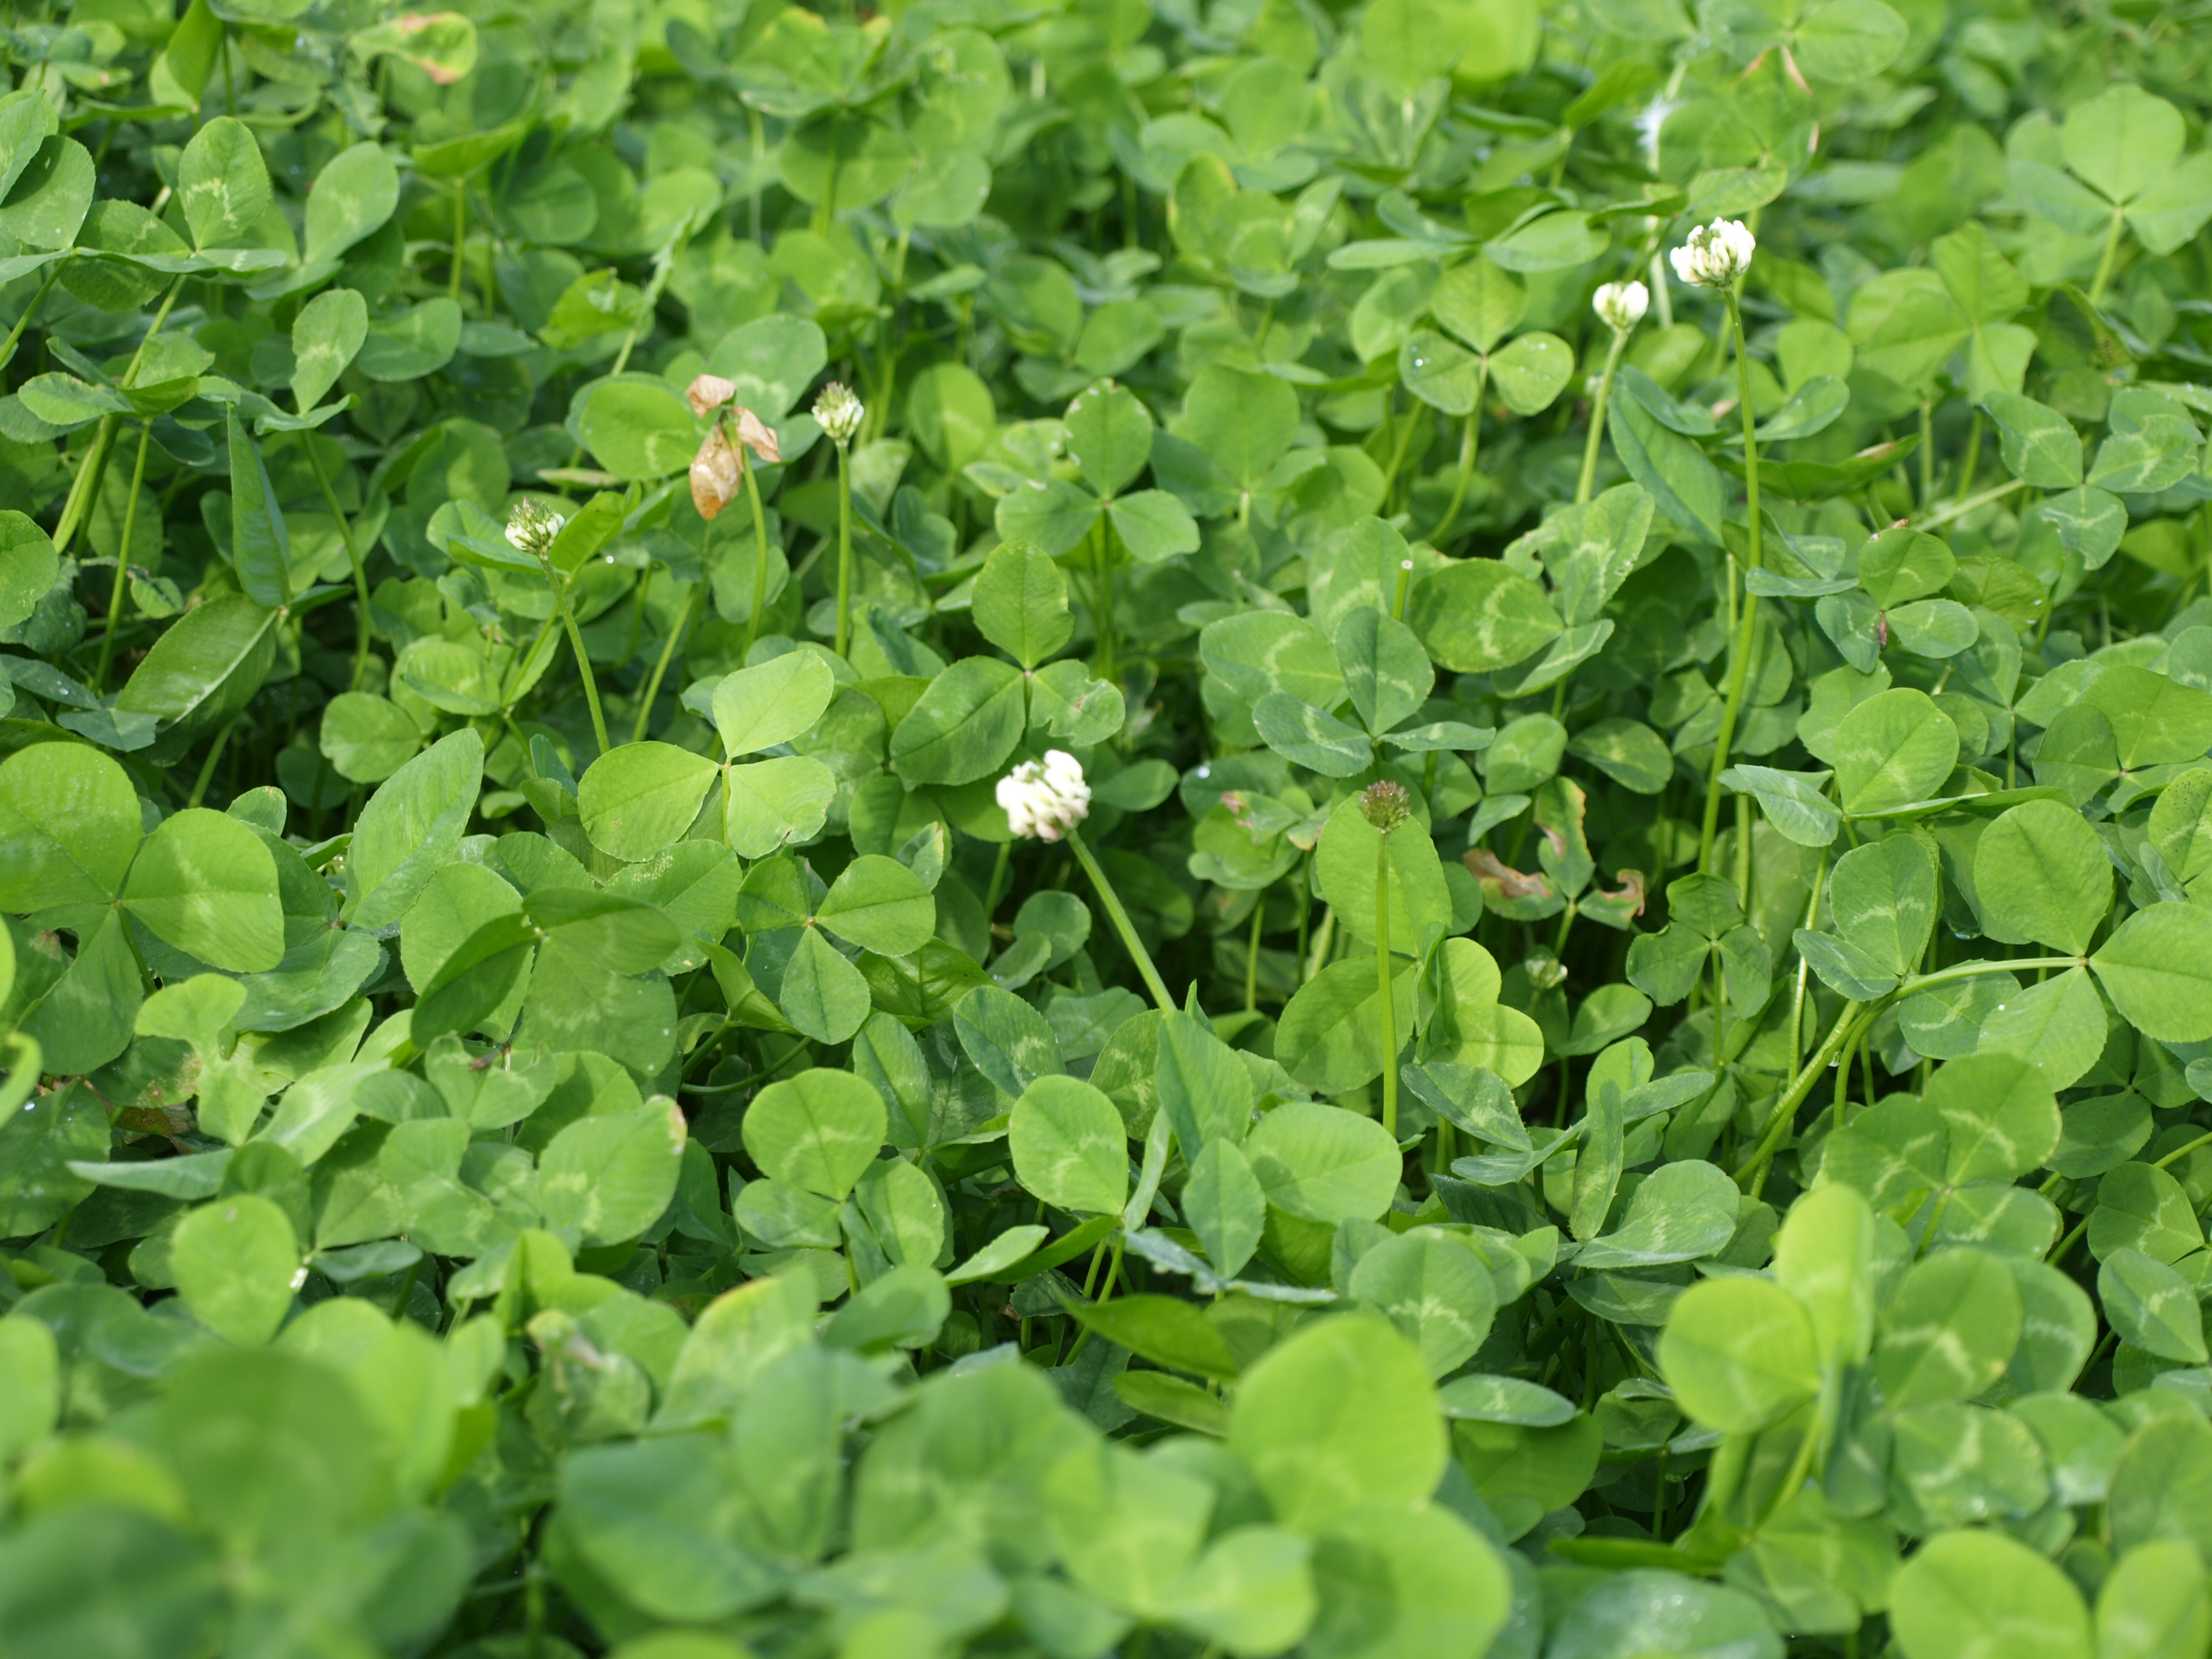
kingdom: Plantae
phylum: Tracheophyta
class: Magnoliopsida
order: Fabales
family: Fabaceae
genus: Trifolium
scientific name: Trifolium repens
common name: White clover
